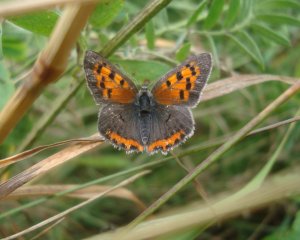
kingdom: Animalia
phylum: Arthropoda
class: Insecta
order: Lepidoptera
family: Lycaenidae
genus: Lycaena
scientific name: Lycaena phlaeas
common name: American Copper
